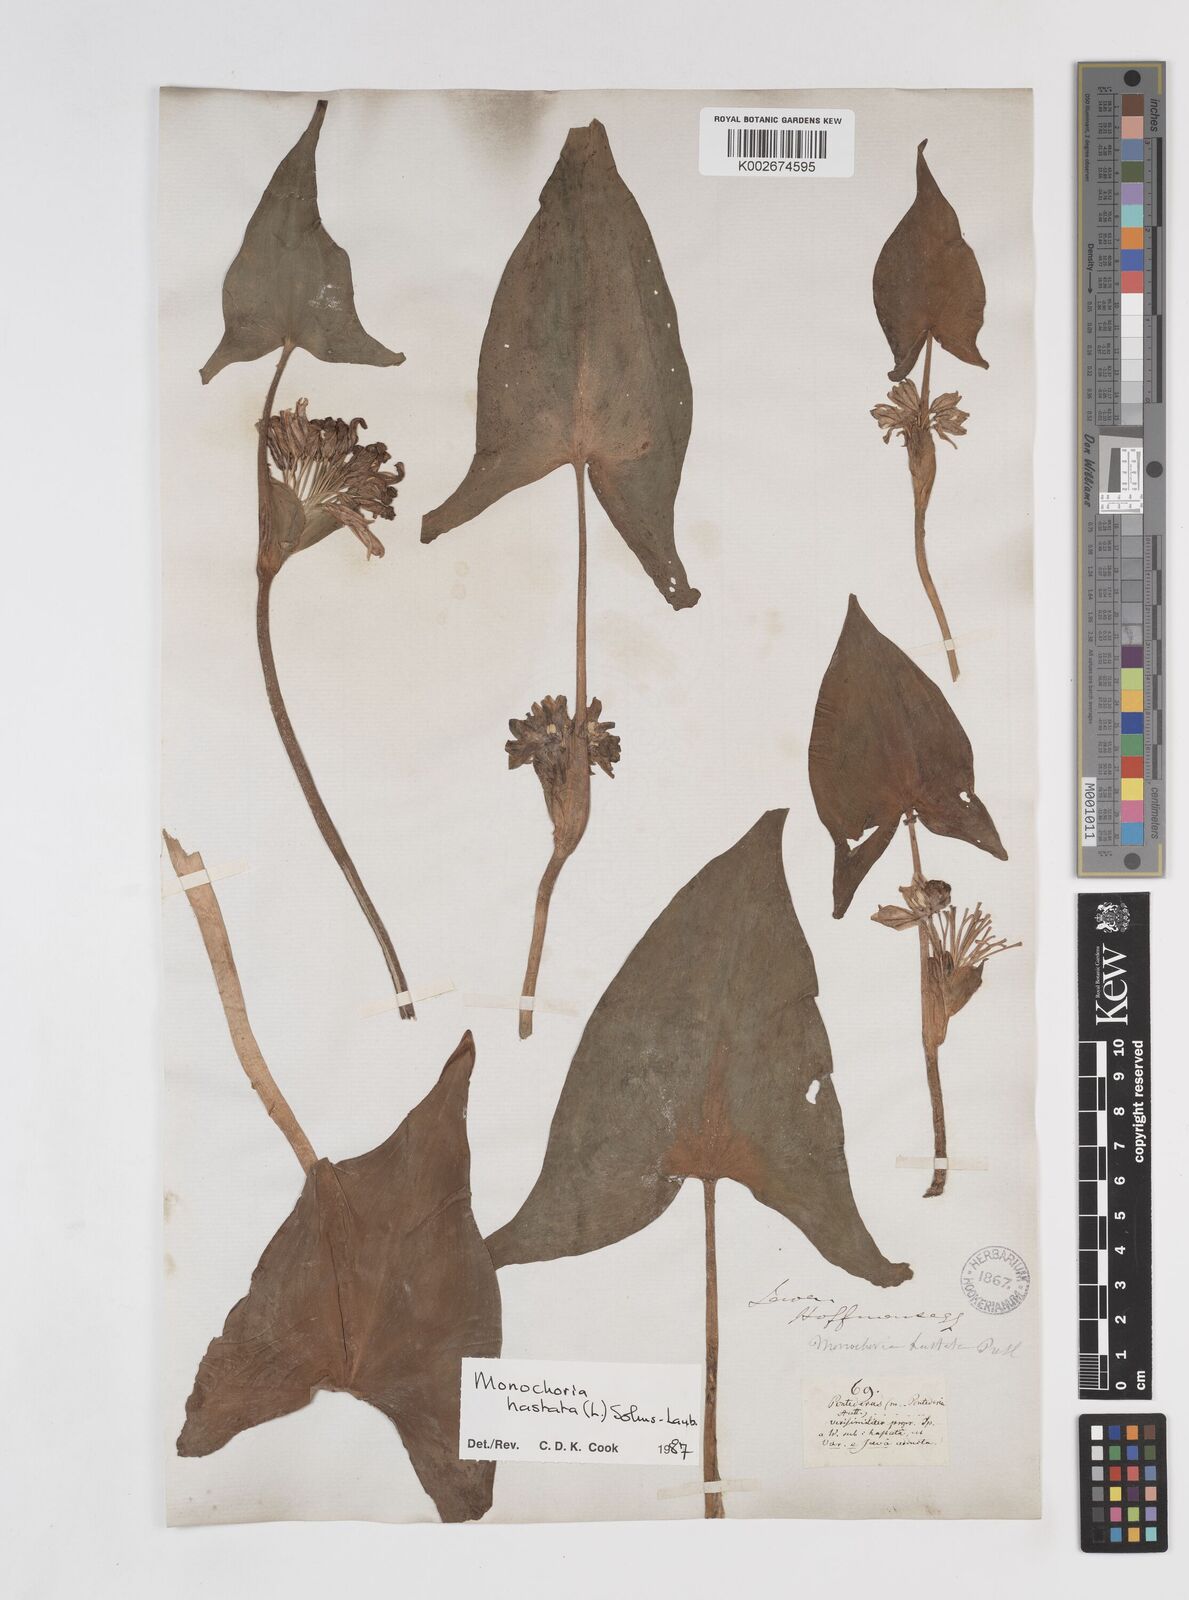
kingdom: Plantae
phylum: Tracheophyta
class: Liliopsida
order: Commelinales
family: Pontederiaceae
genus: Pontederia
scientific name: Pontederia hastata
